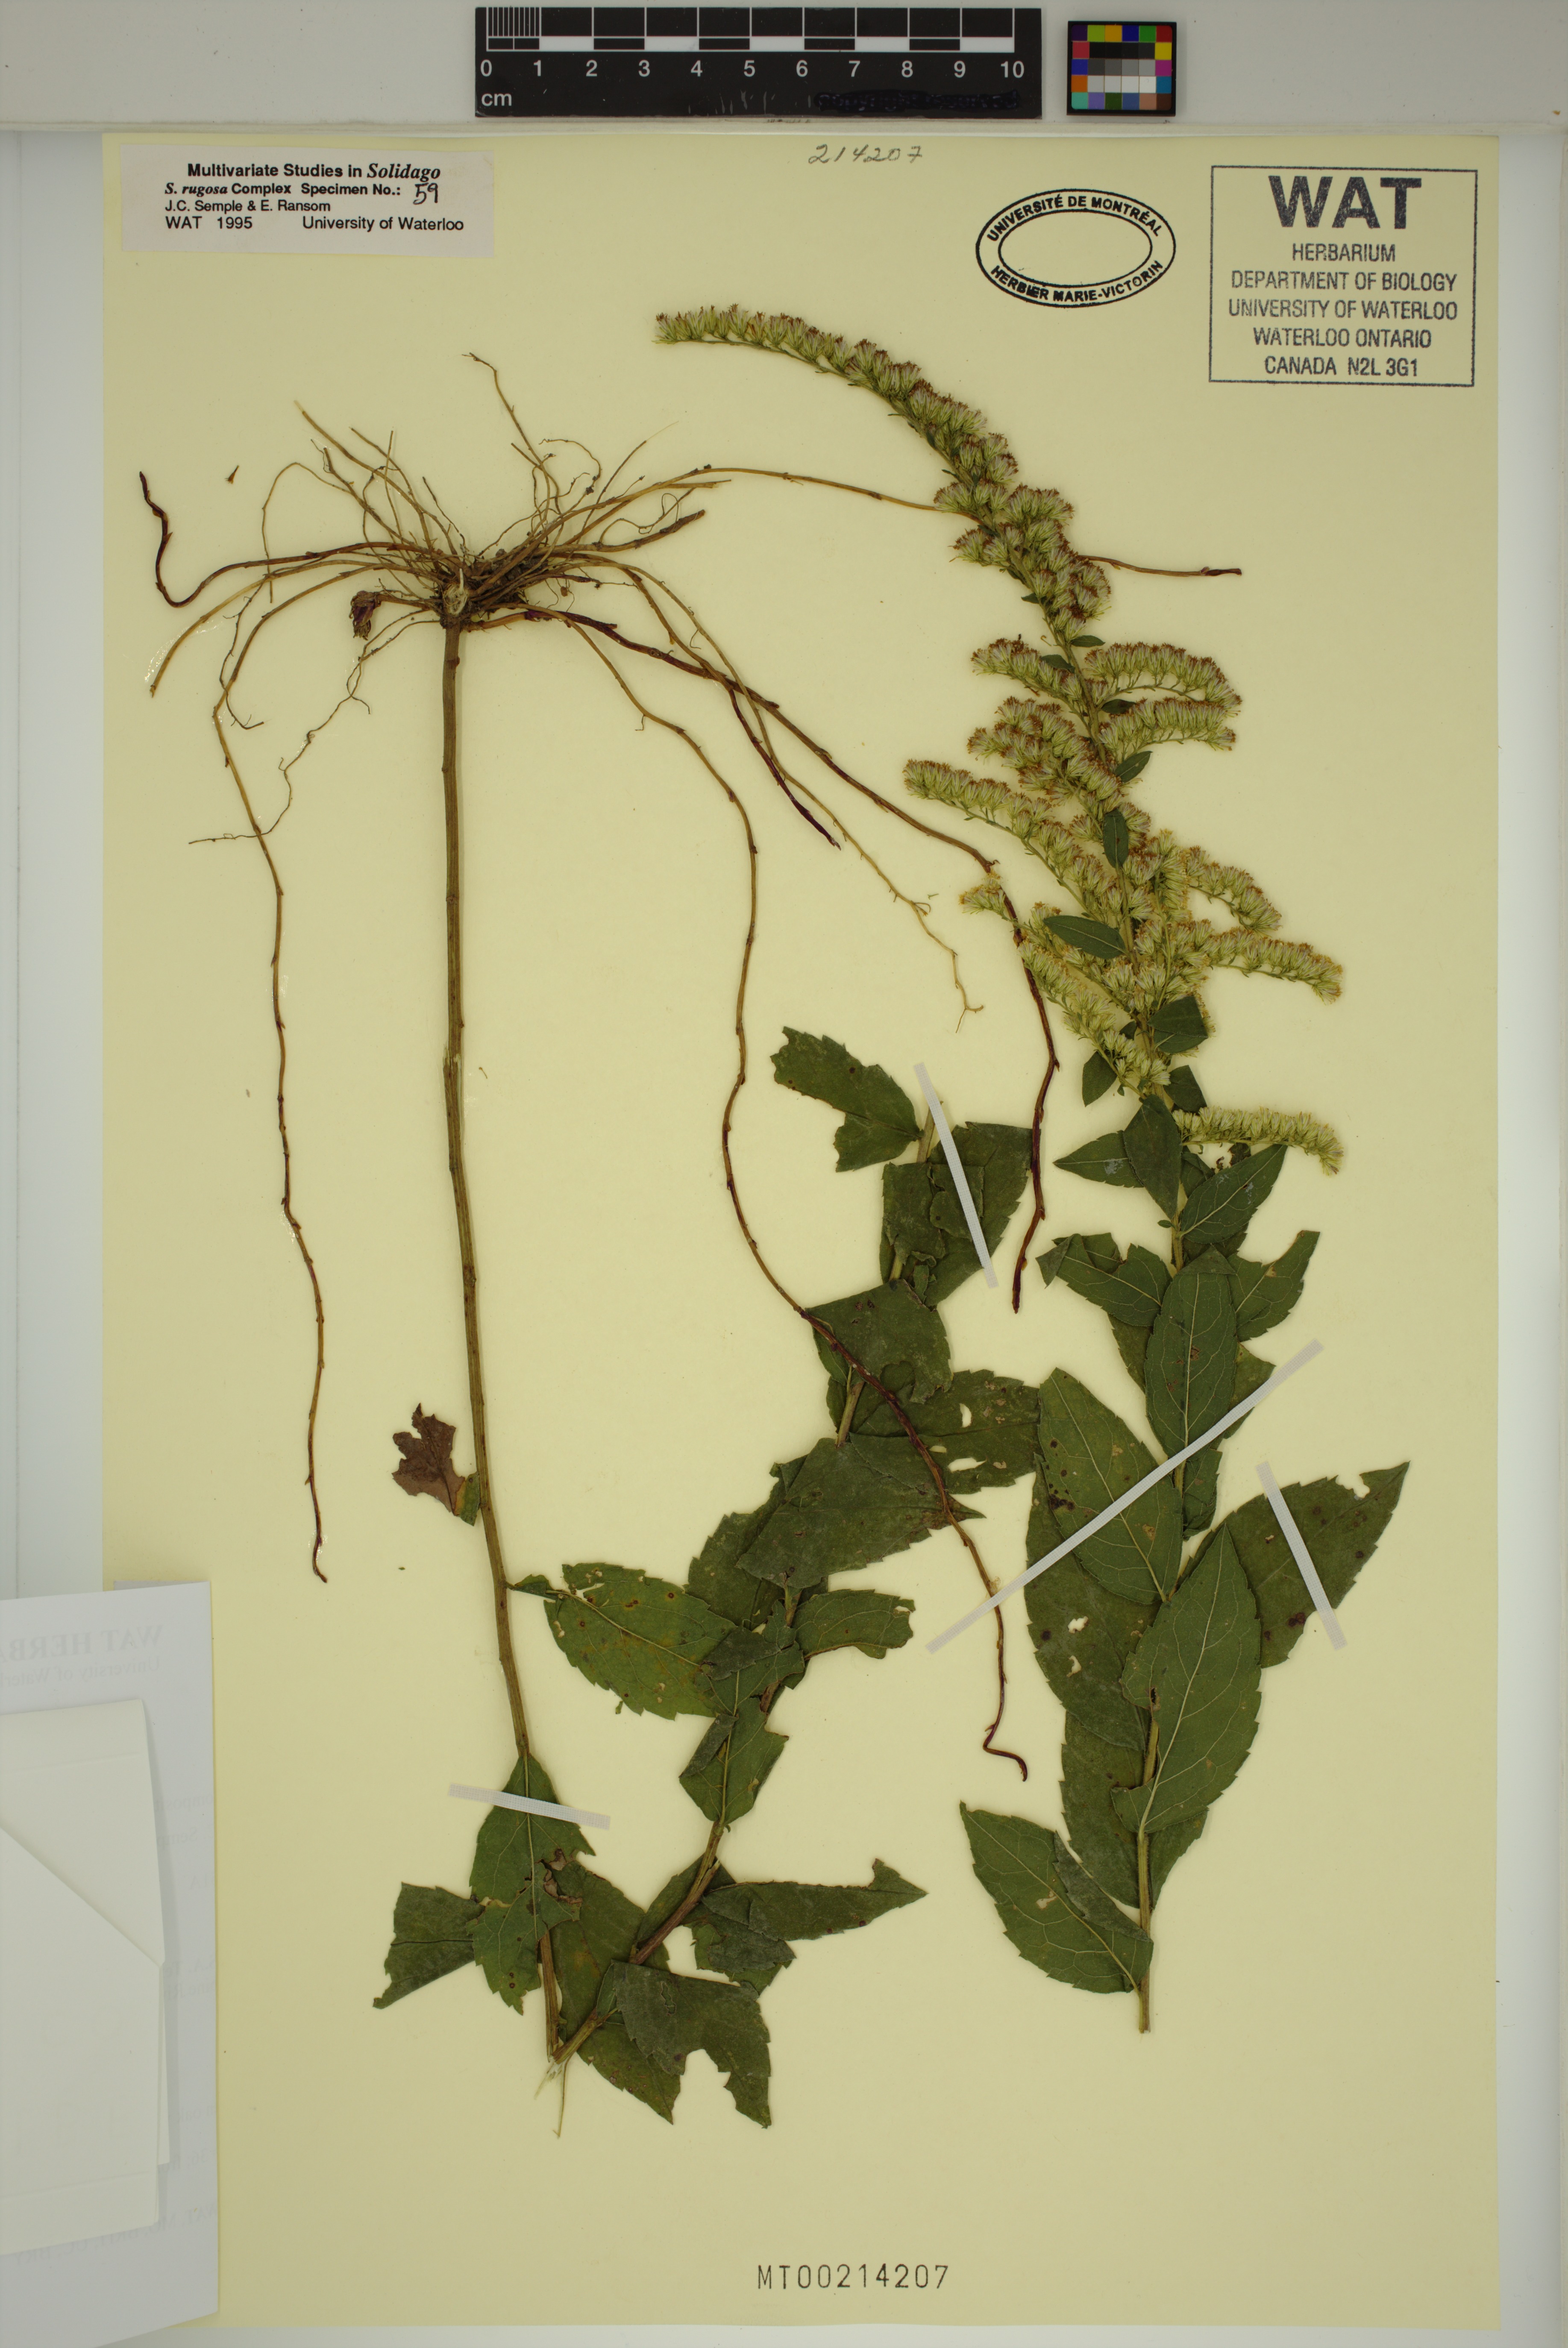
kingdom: Plantae
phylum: Tracheophyta
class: Magnoliopsida
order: Asterales
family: Asteraceae
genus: Solidago
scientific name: Solidago rugosa
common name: Rough-stemmed goldenrod
